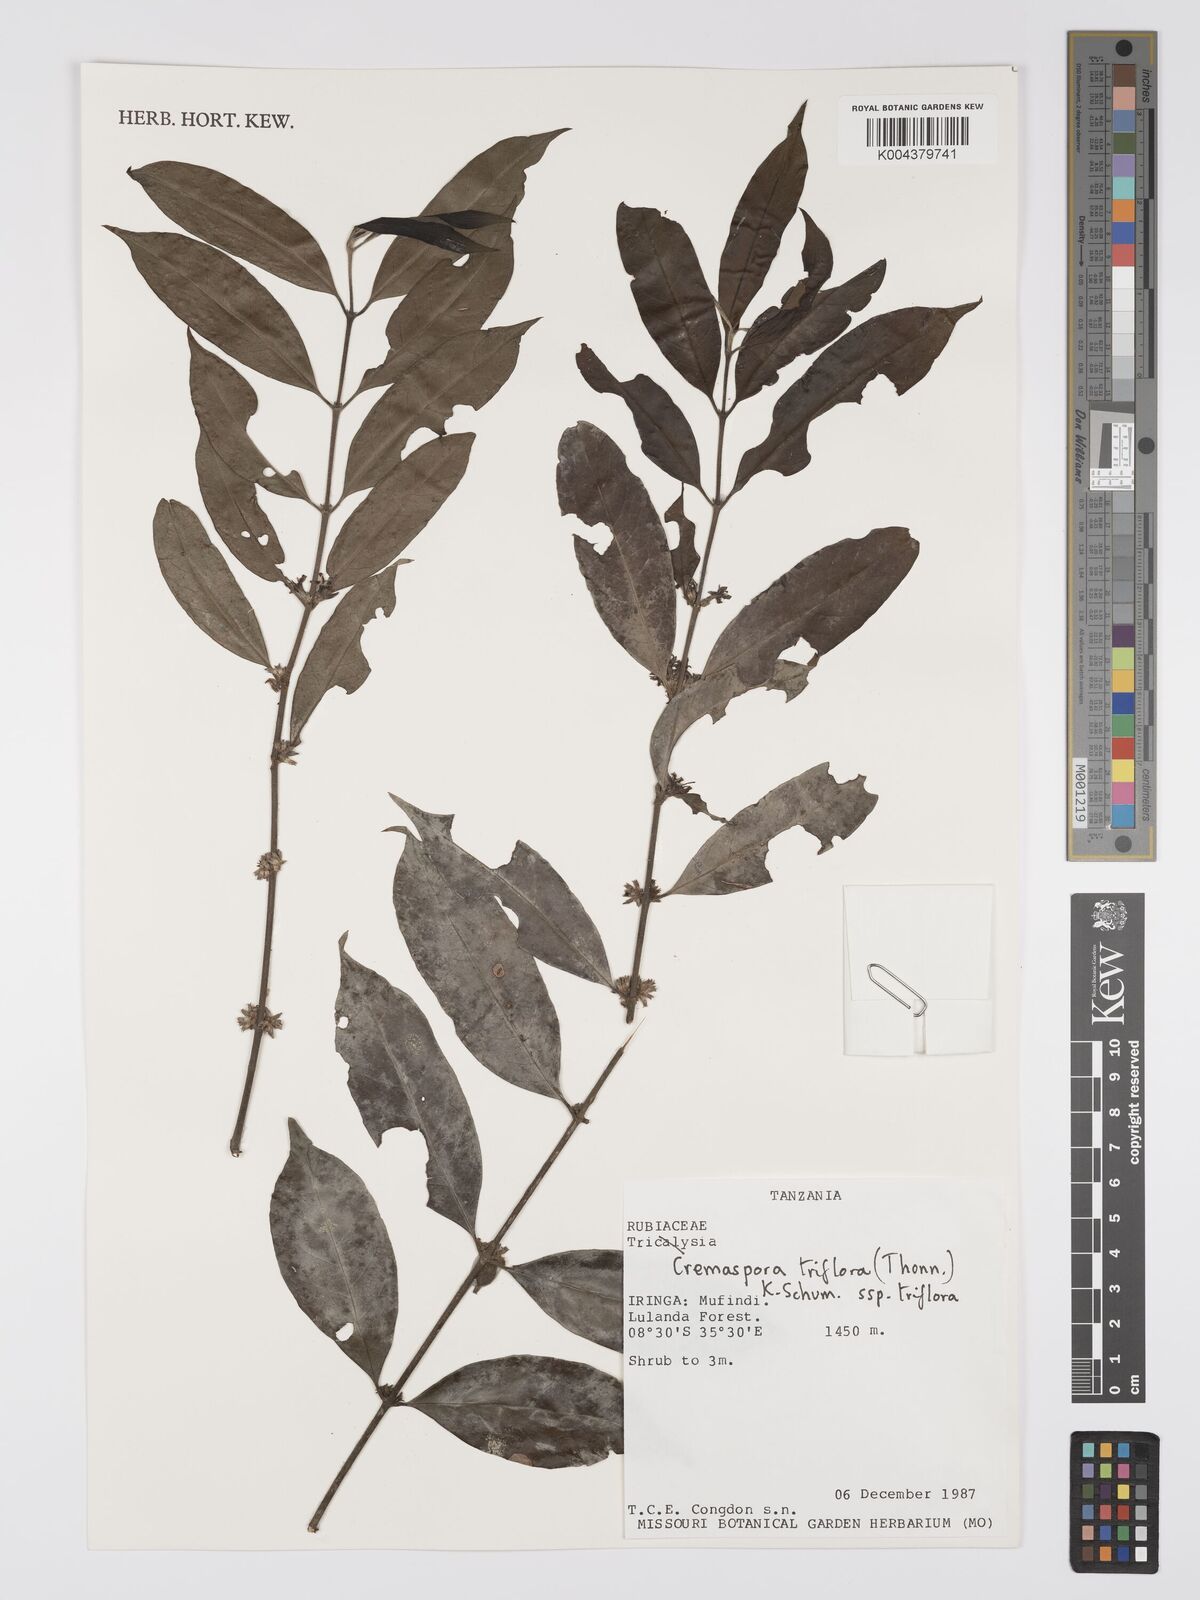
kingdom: Plantae
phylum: Tracheophyta
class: Magnoliopsida
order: Gentianales
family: Rubiaceae
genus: Cremaspora
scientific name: Cremaspora triflora
